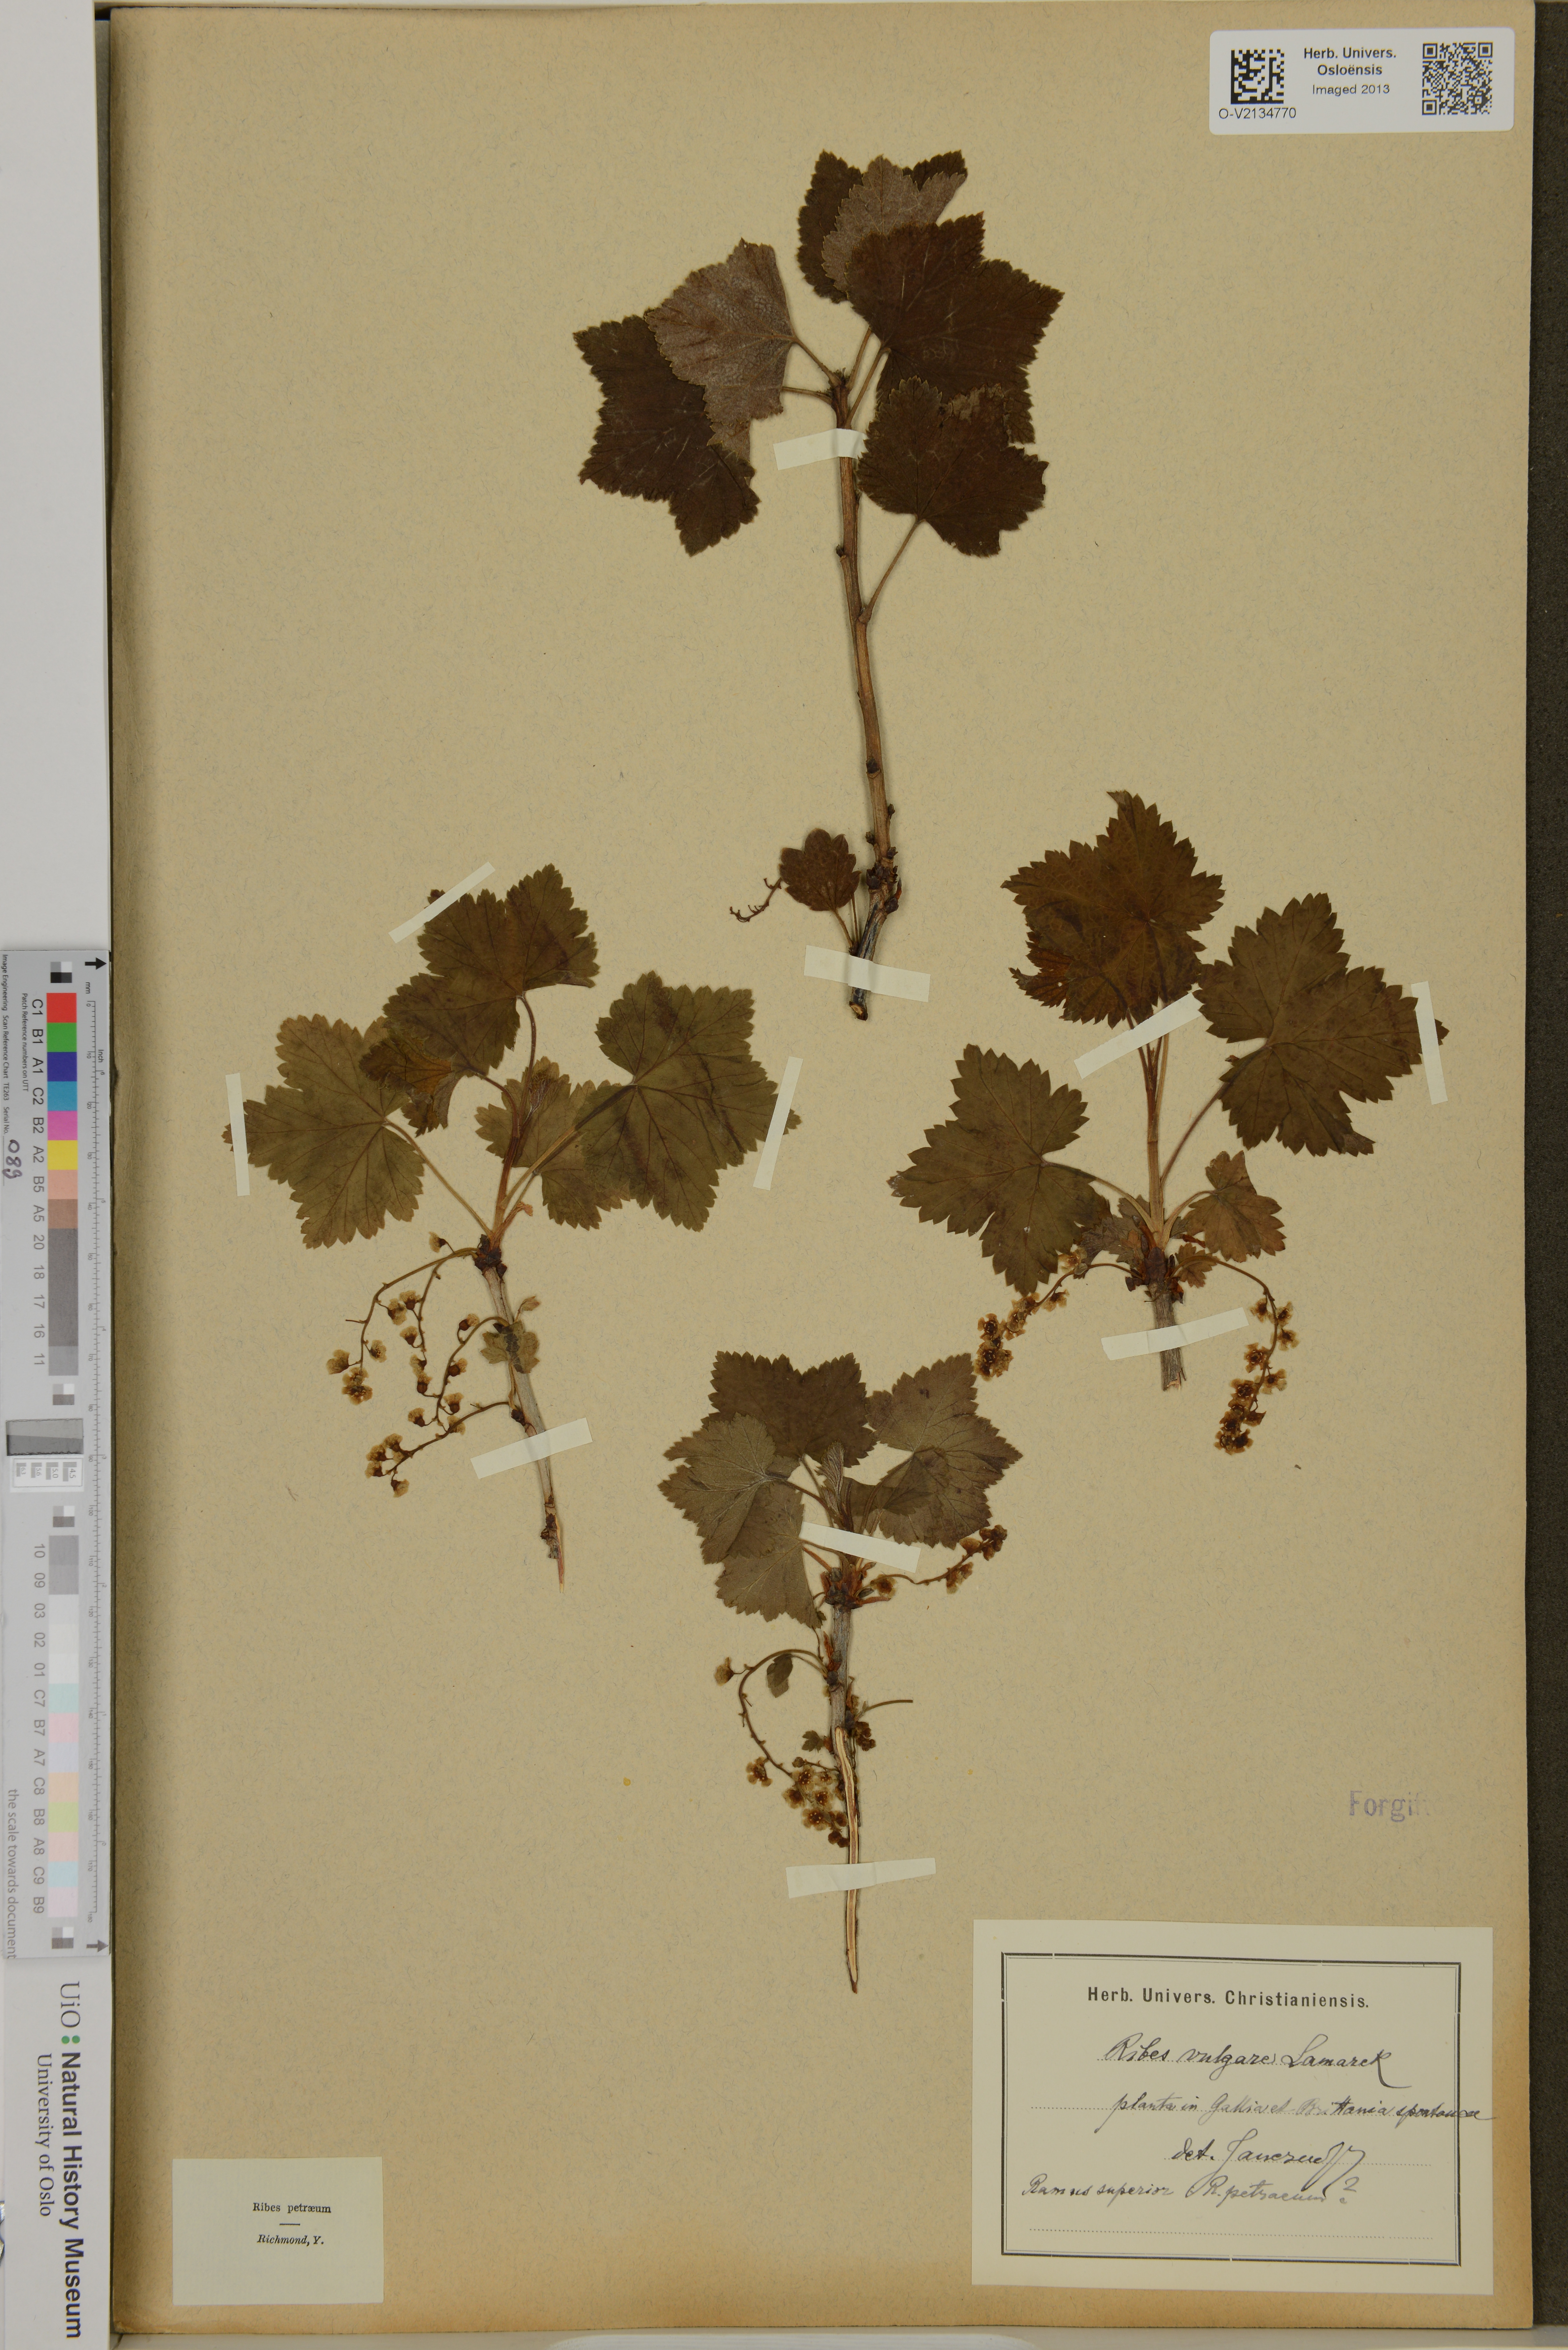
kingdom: Plantae
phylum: Tracheophyta
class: Magnoliopsida
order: Saxifragales
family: Grossulariaceae
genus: Ribes
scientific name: Ribes rubrum
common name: Red currant
